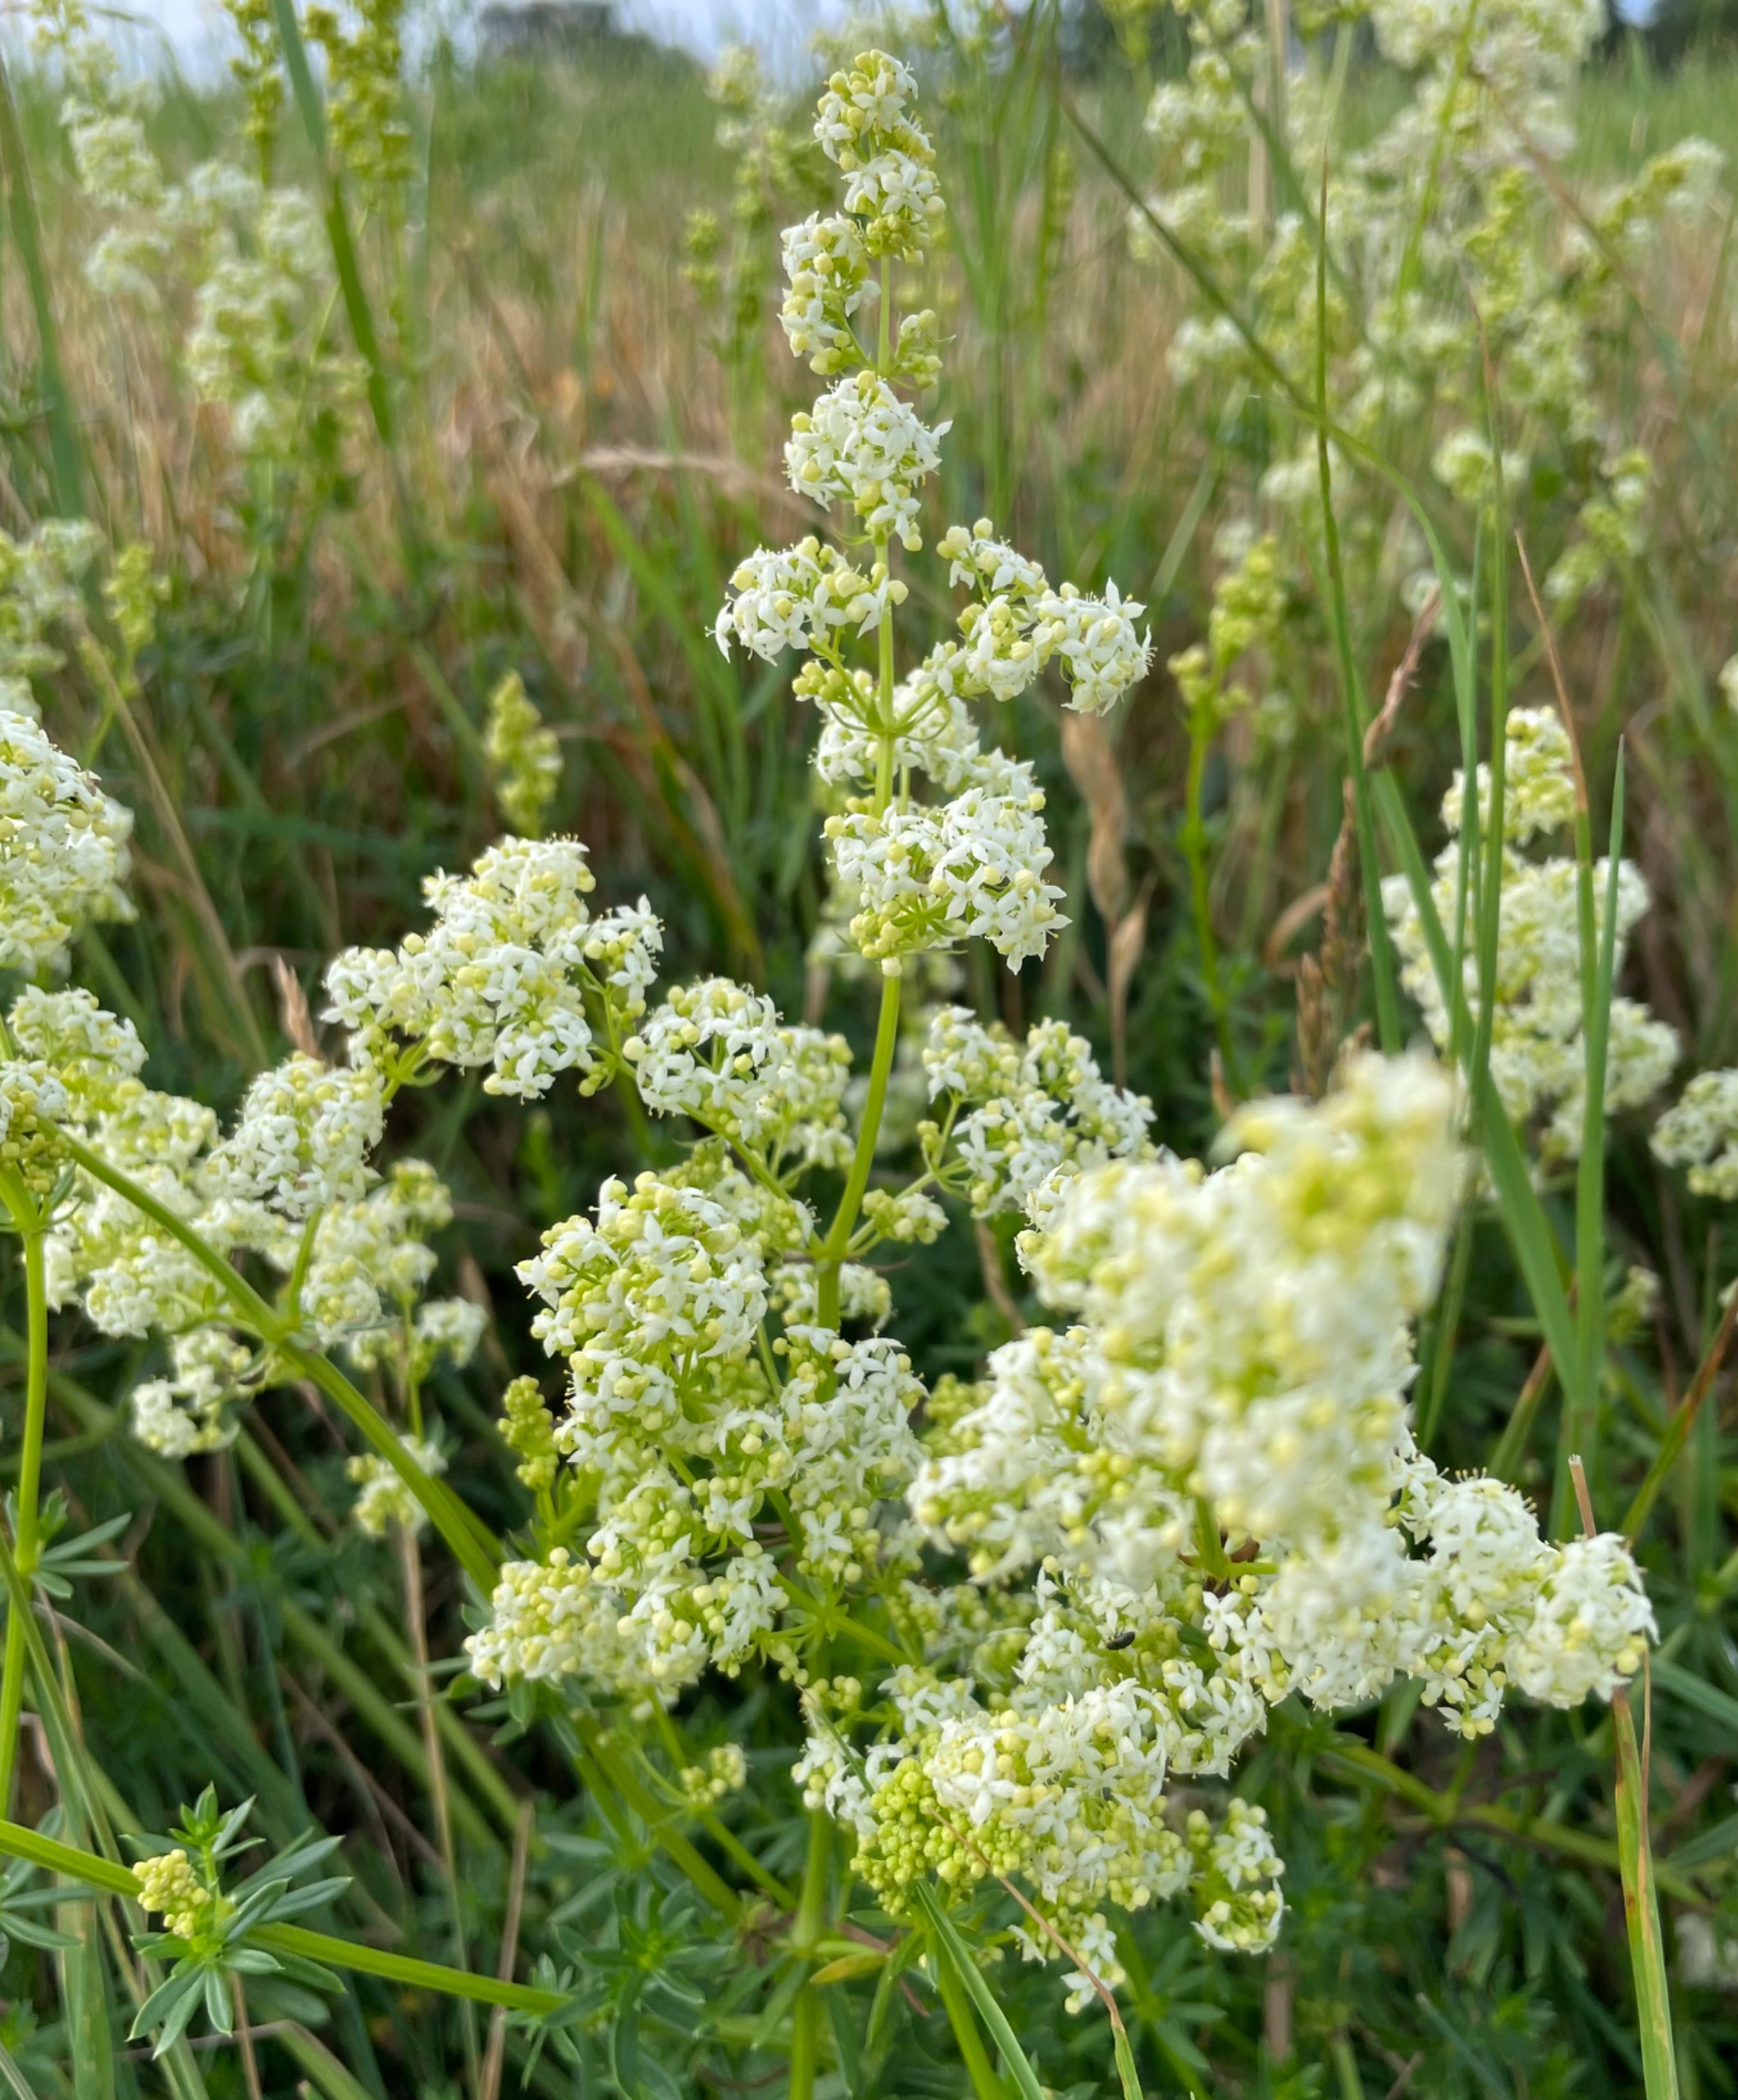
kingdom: Plantae
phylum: Tracheophyta
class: Magnoliopsida
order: Gentianales
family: Rubiaceae
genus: Galium
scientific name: Galium mollugo
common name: Hvid snerre
